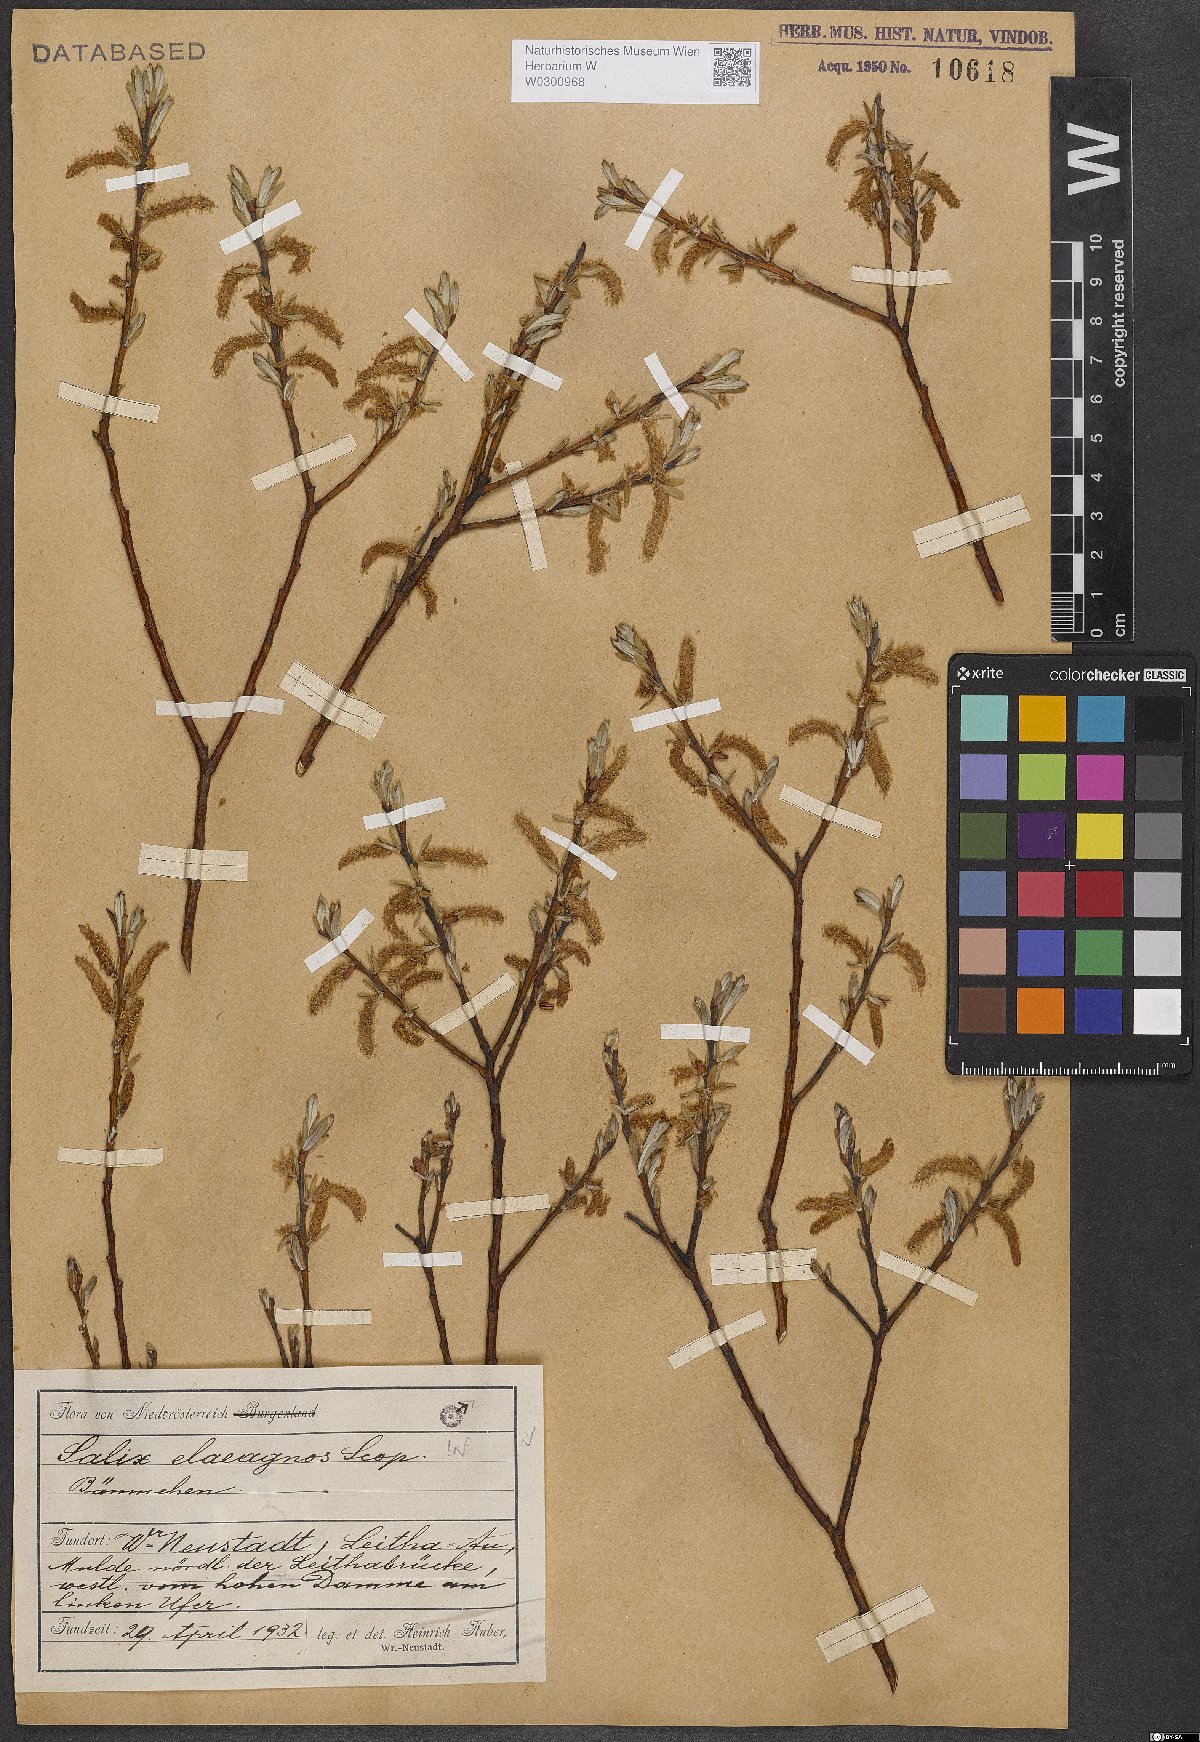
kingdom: Plantae
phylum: Tracheophyta
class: Magnoliopsida
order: Malpighiales
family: Salicaceae
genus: Salix
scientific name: Salix eleagnos
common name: Elaeagnus willow
